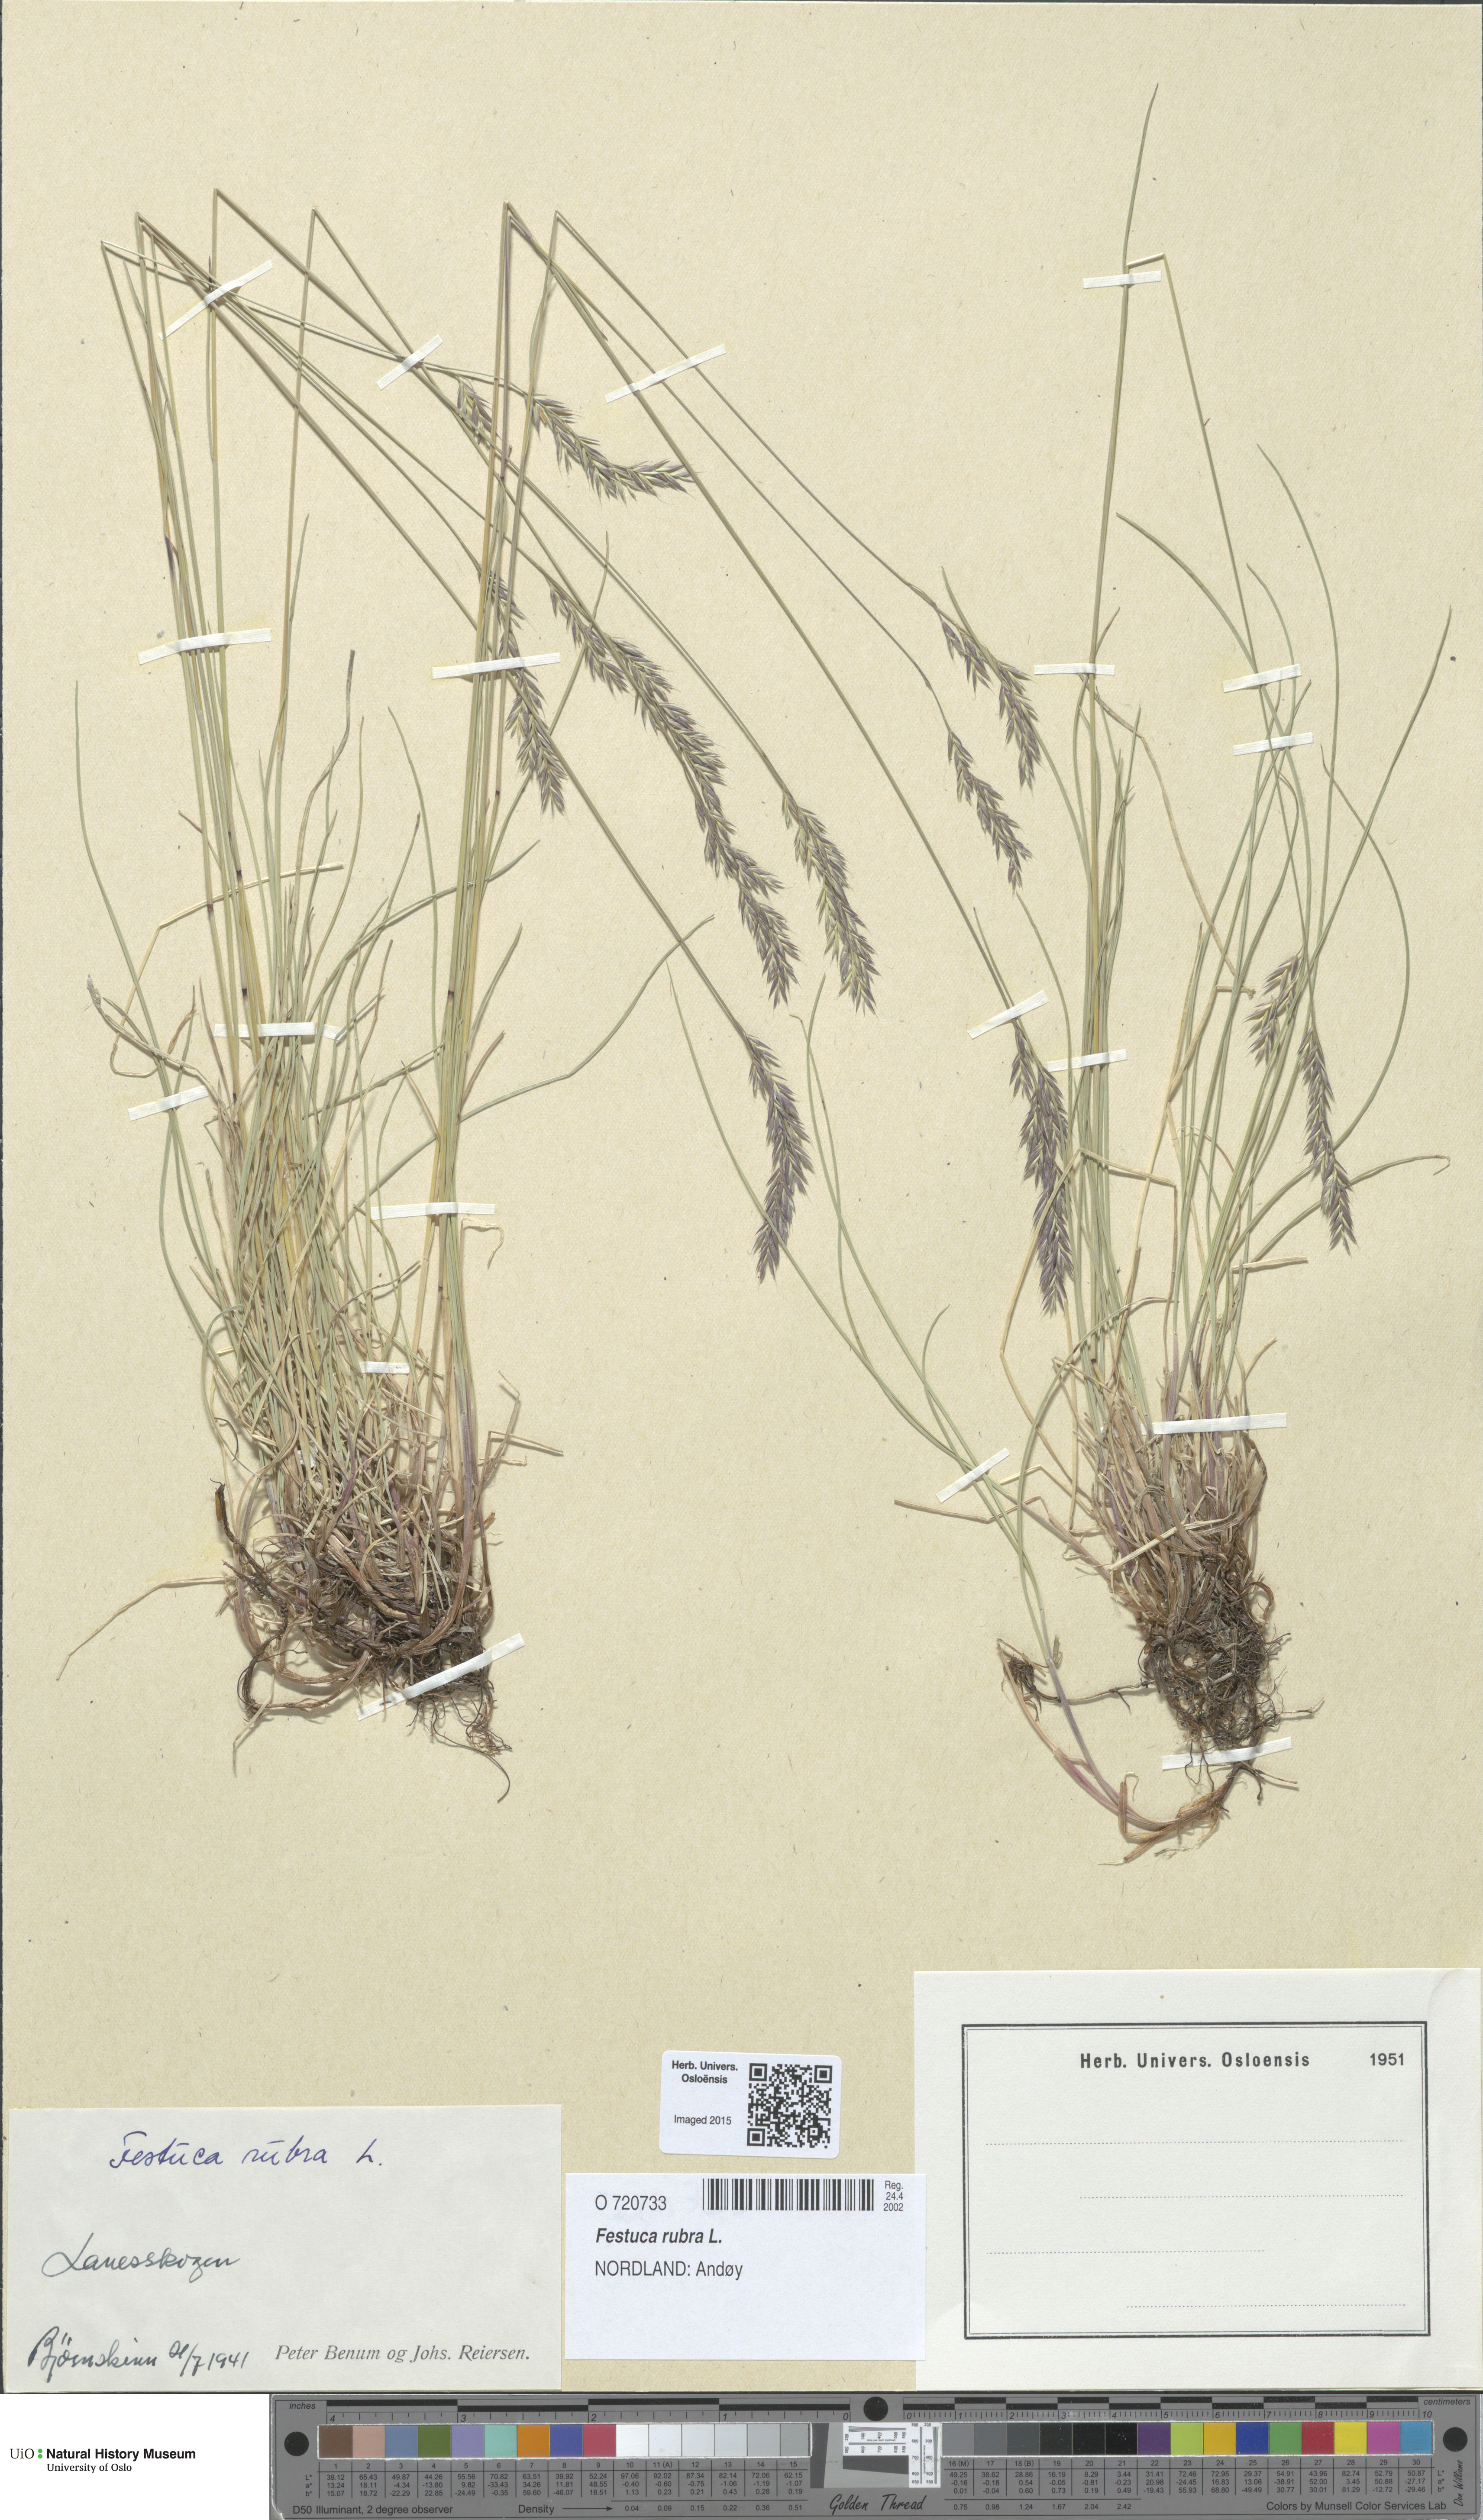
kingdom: Plantae
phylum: Tracheophyta
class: Liliopsida
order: Poales
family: Poaceae
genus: Festuca
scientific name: Festuca rubra
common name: Red fescue
